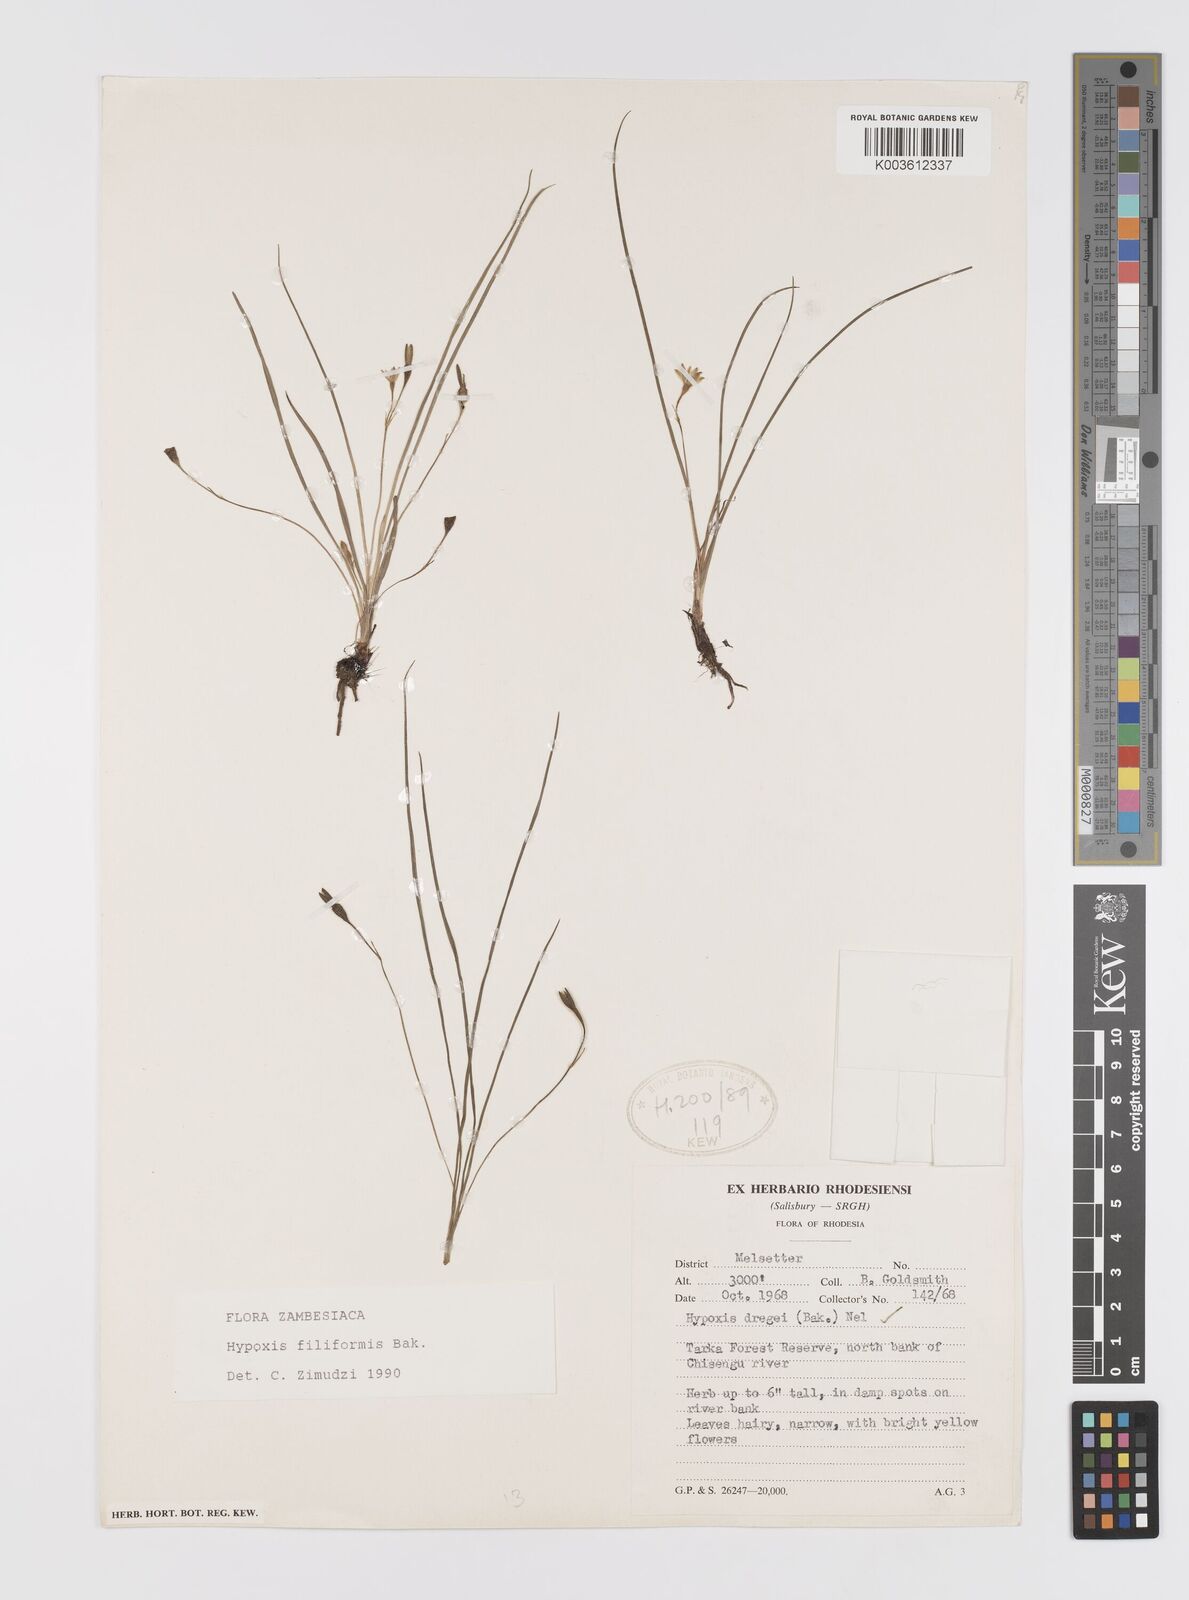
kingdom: Plantae
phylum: Tracheophyta
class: Liliopsida
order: Asparagales
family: Hypoxidaceae
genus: Hypoxis
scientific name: Hypoxis filiformis
